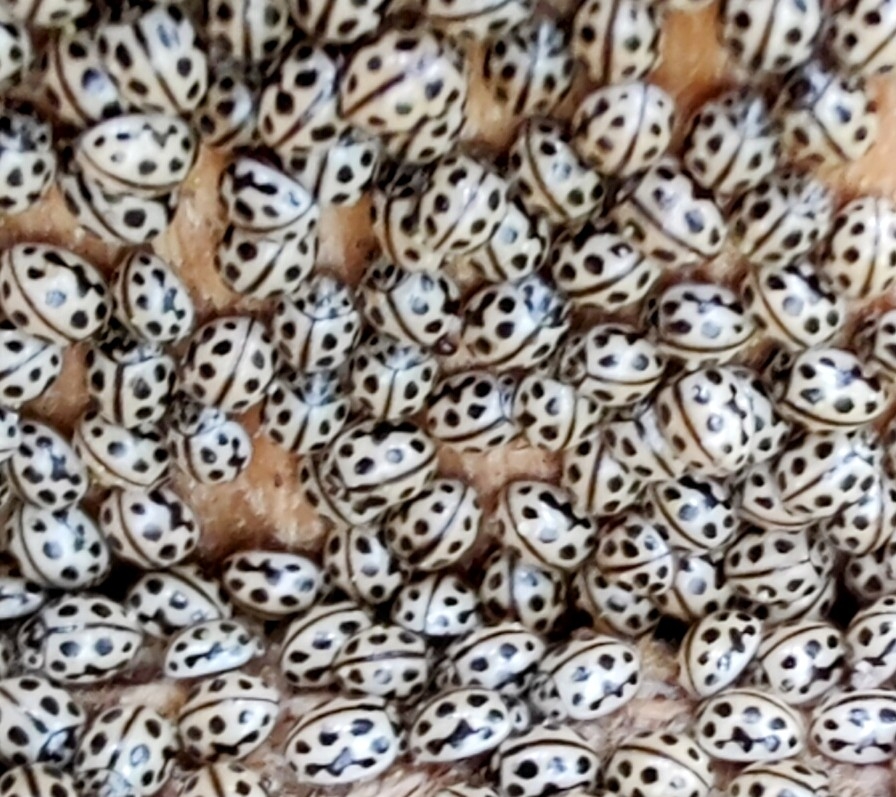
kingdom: Animalia
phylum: Arthropoda
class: Insecta
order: Coleoptera
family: Coccinellidae
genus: Tytthaspis
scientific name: Tytthaspis sedecimpunctata
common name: Sekstenprikket mariehøne
